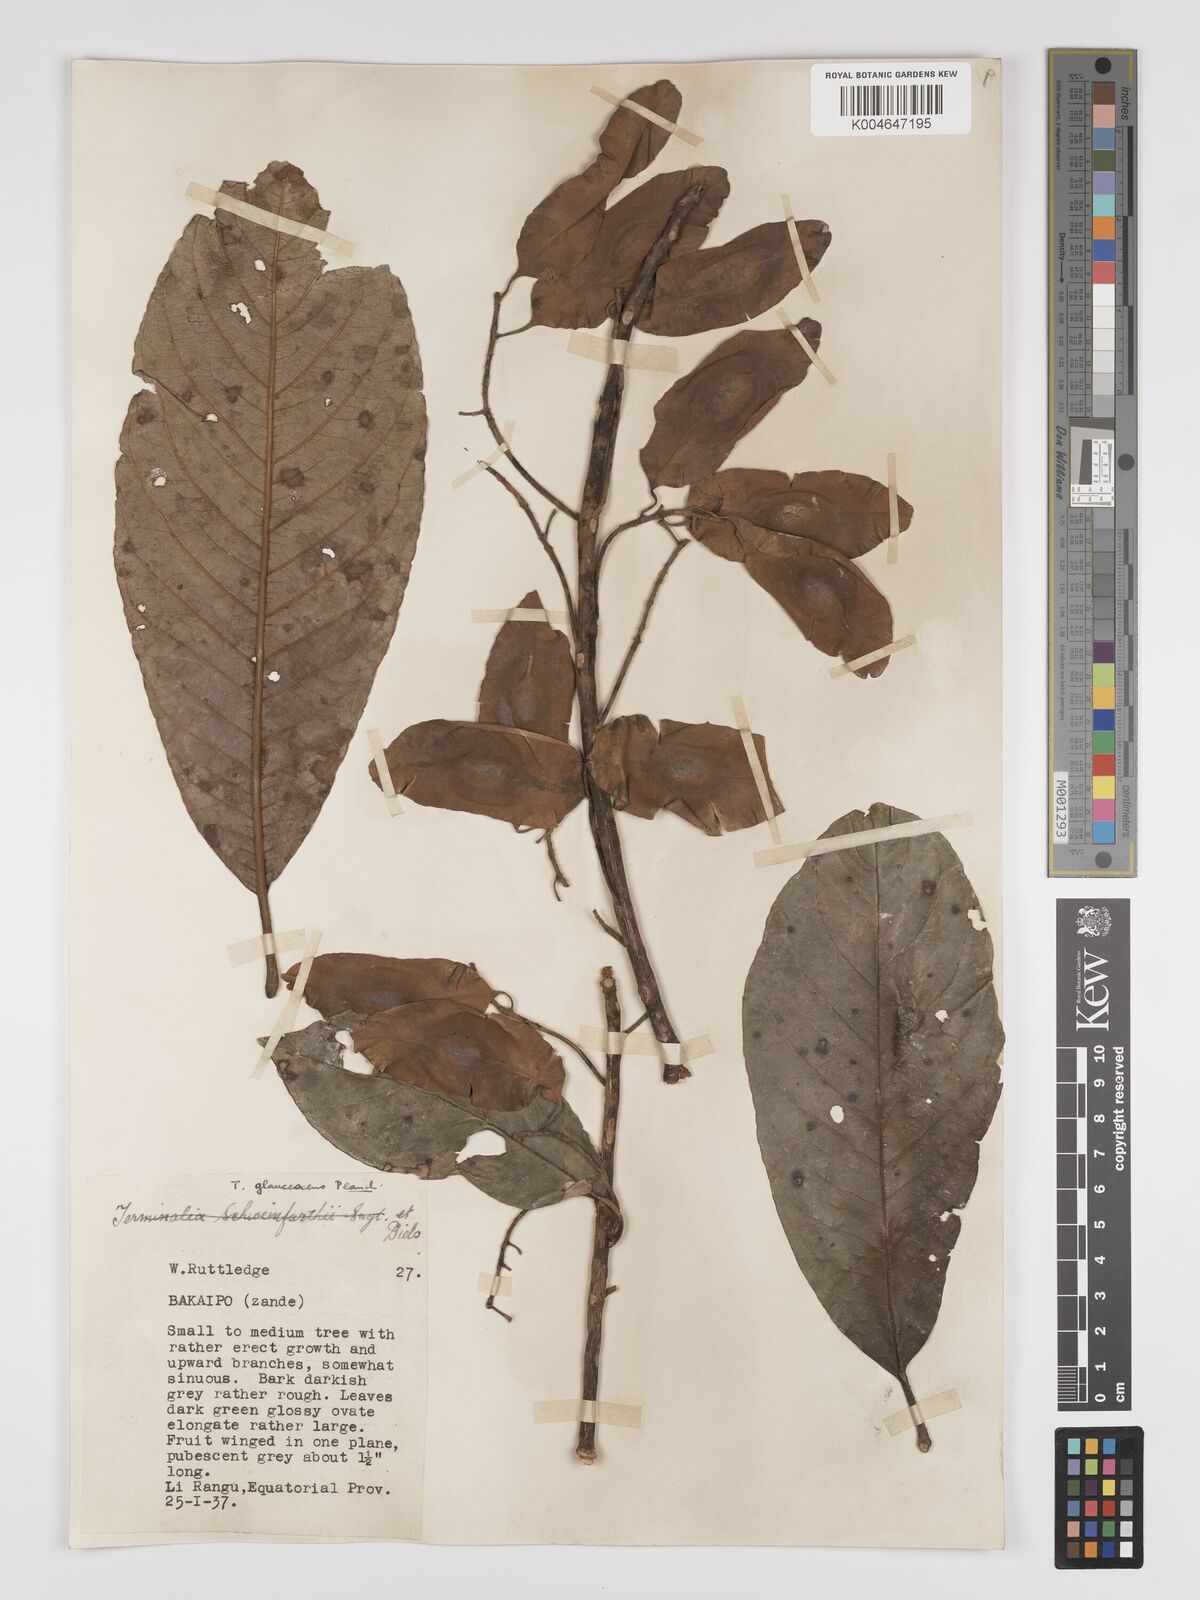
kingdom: Plantae
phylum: Tracheophyta
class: Magnoliopsida
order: Myrtales
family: Combretaceae
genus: Terminalia
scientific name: Terminalia schimperiana
